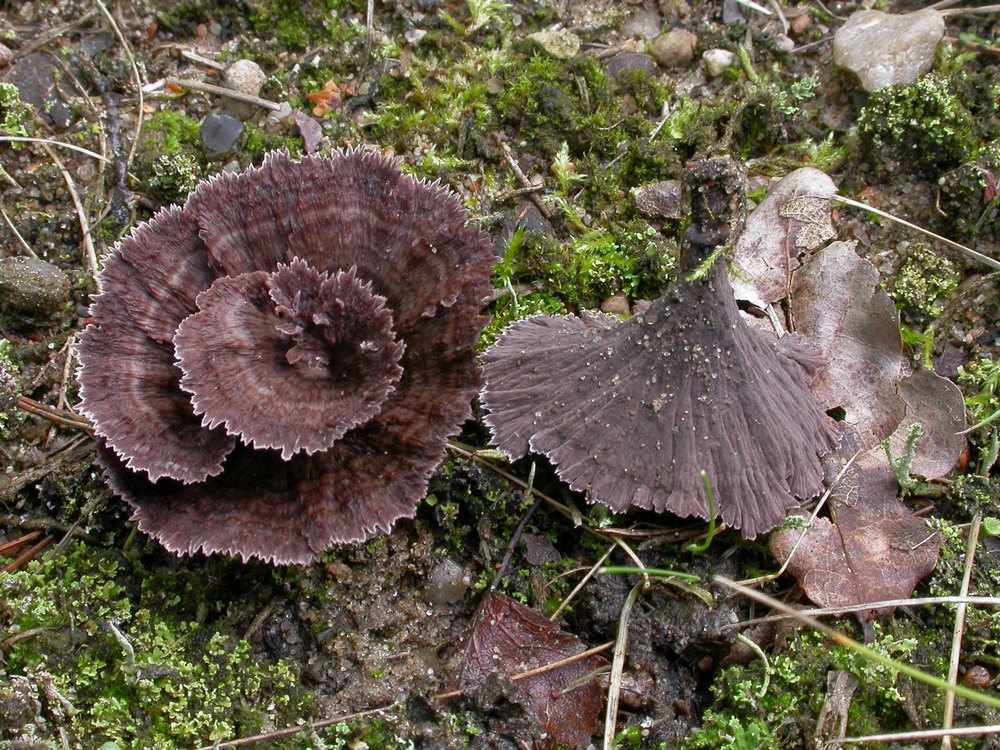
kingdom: Fungi
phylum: Basidiomycota
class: Agaricomycetes
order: Thelephorales
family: Thelephoraceae
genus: Thelephora
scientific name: Thelephora caryophyllea
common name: tragt-frynsesvamp
